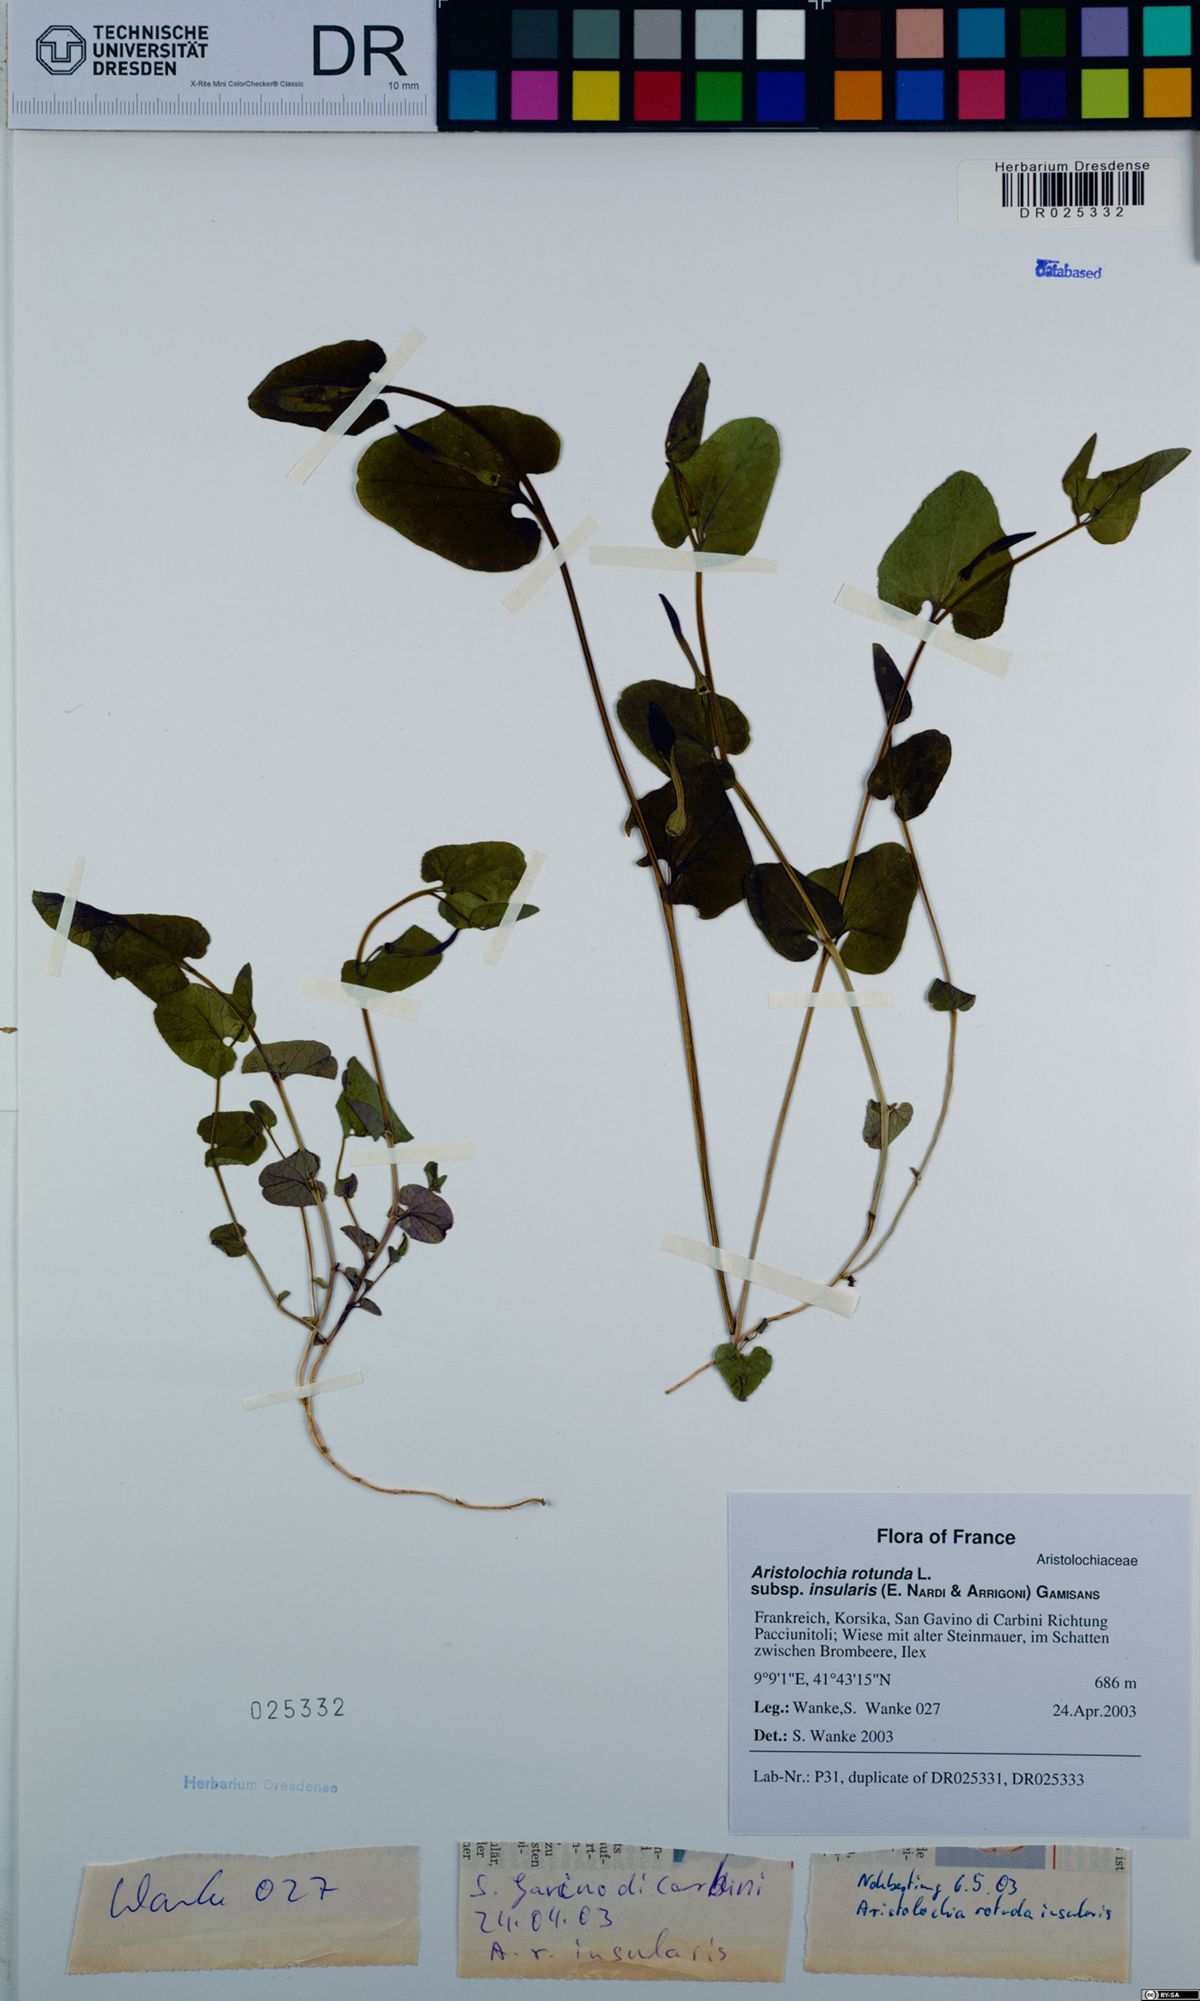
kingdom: Plantae
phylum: Tracheophyta
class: Magnoliopsida
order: Piperales
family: Aristolochiaceae
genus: Aristolochia
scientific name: Aristolochia rotunda
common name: Smearwort
